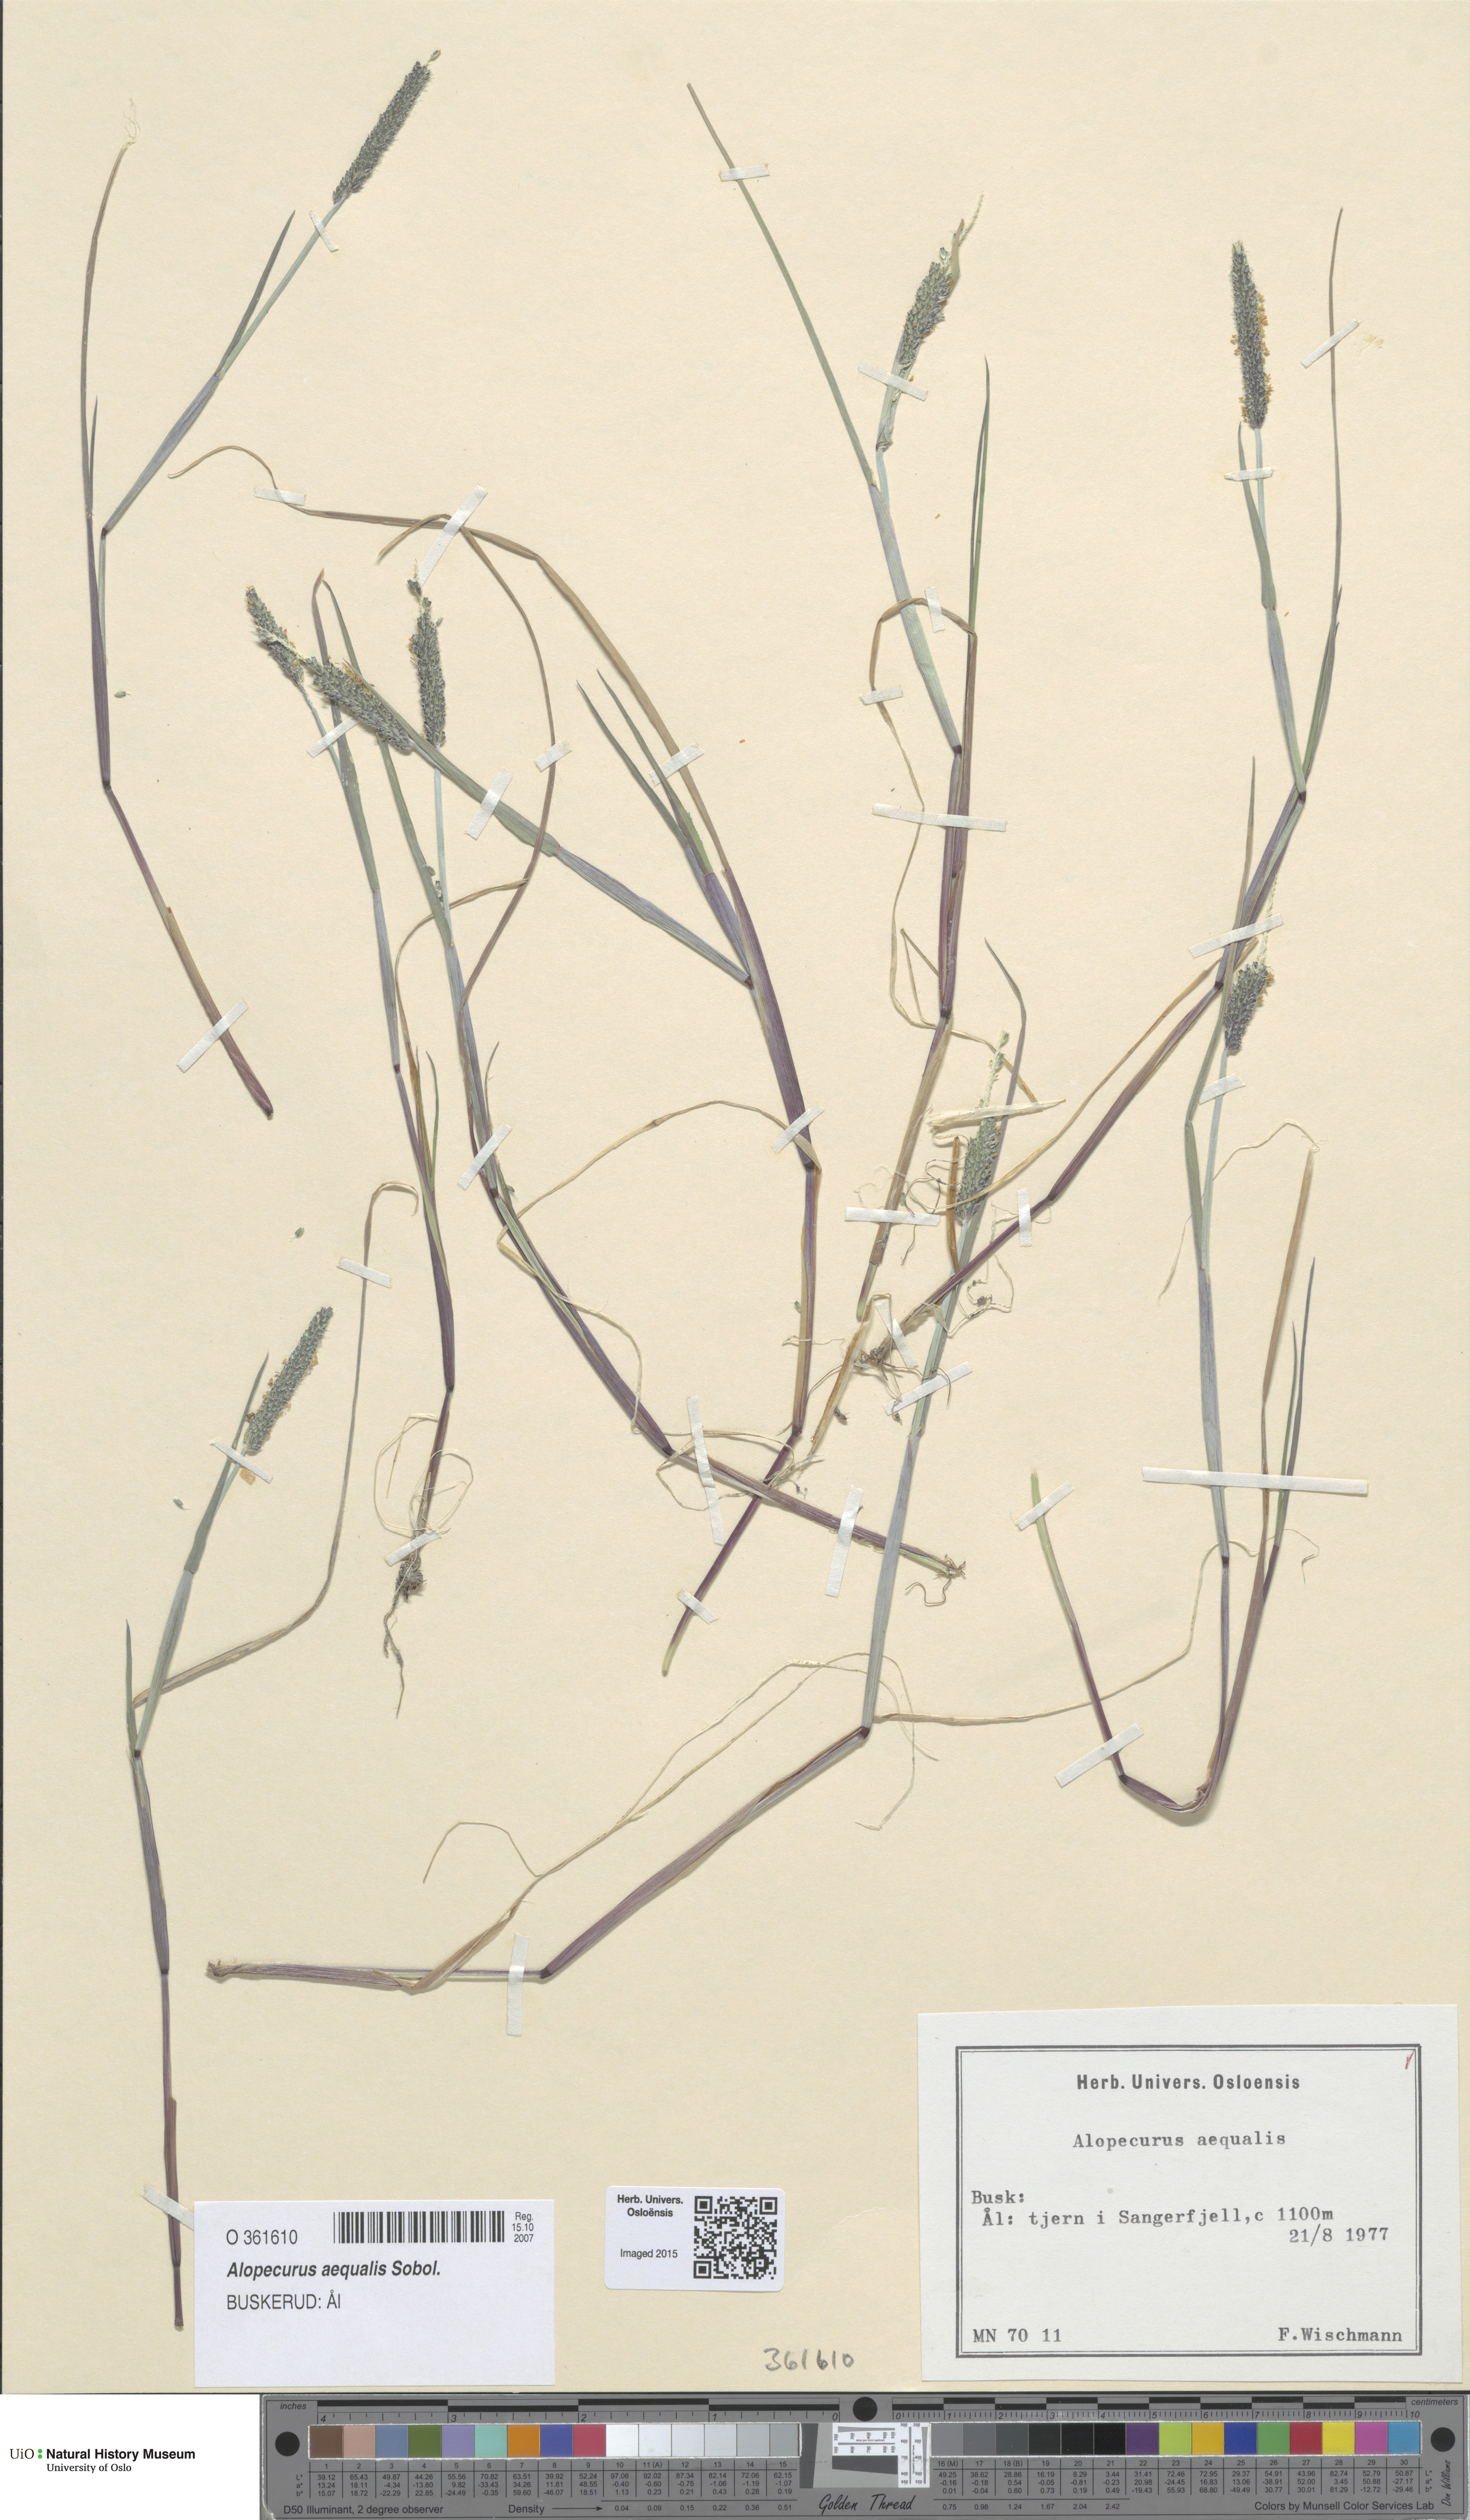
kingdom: Plantae
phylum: Tracheophyta
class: Liliopsida
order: Poales
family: Poaceae
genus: Alopecurus
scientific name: Alopecurus aequalis
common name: Orange foxtail
